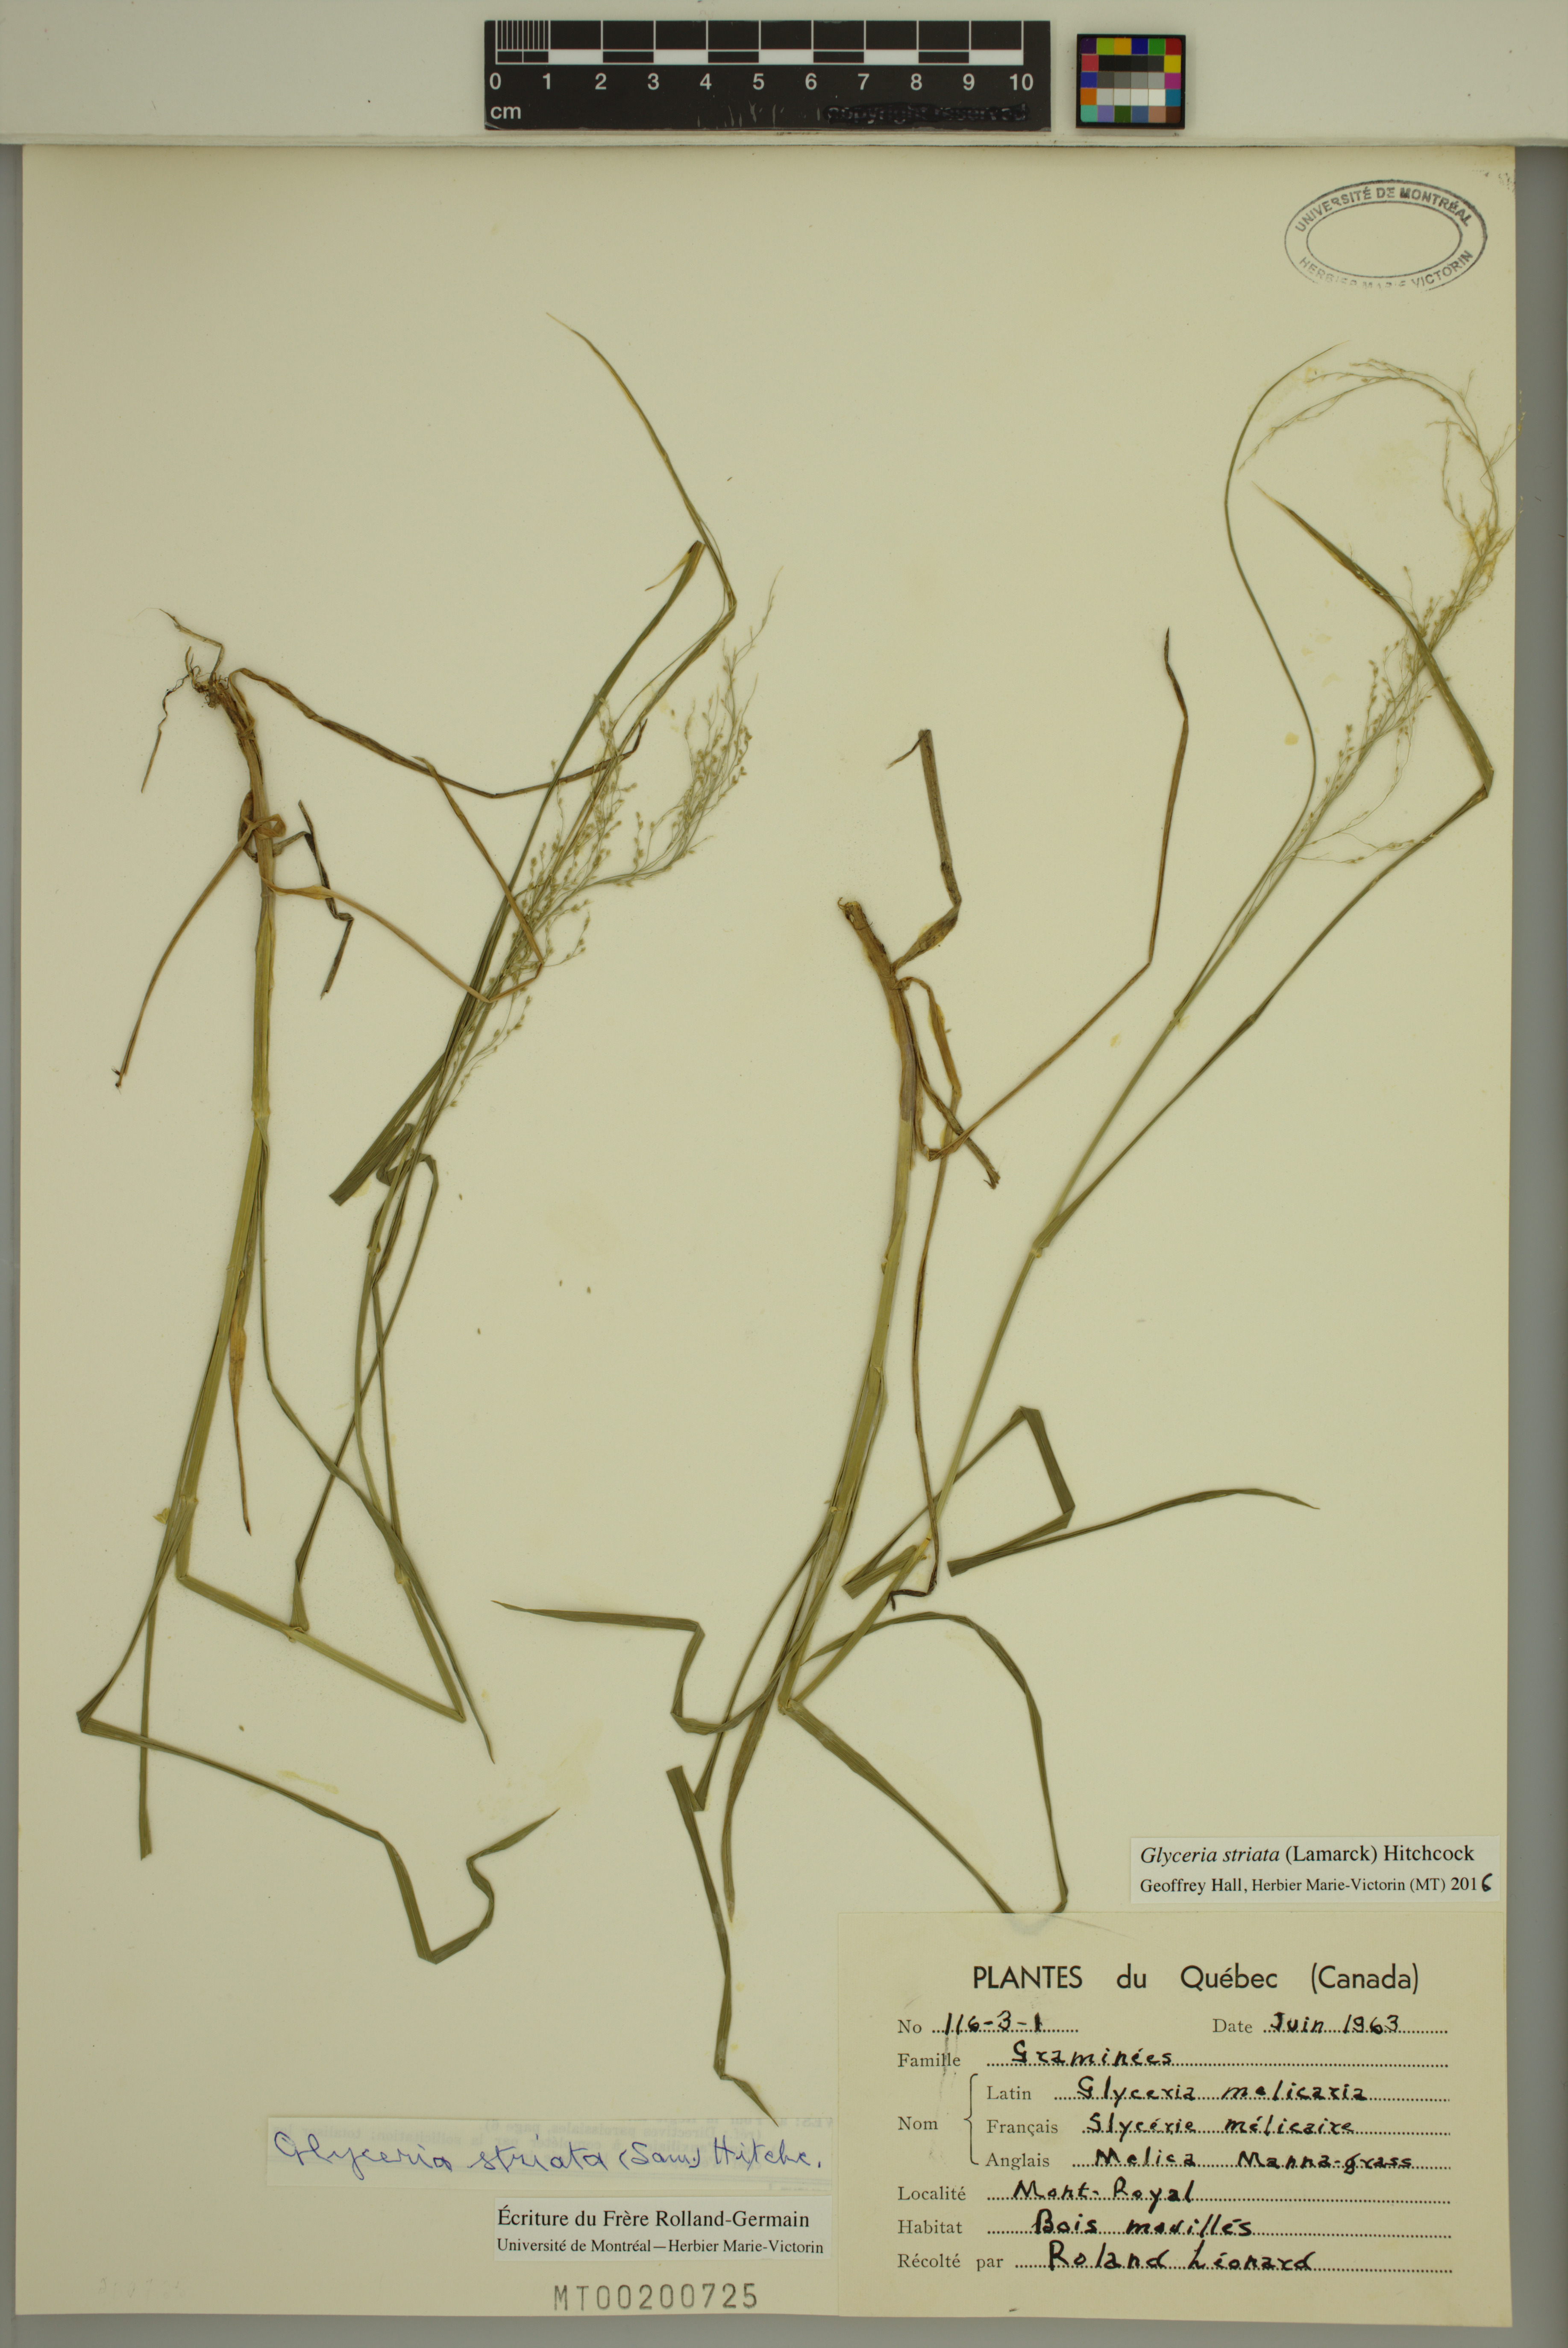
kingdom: Plantae
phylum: Tracheophyta
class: Liliopsida
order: Poales
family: Poaceae
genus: Glyceria
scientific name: Glyceria striata
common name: Fowl manna grass
